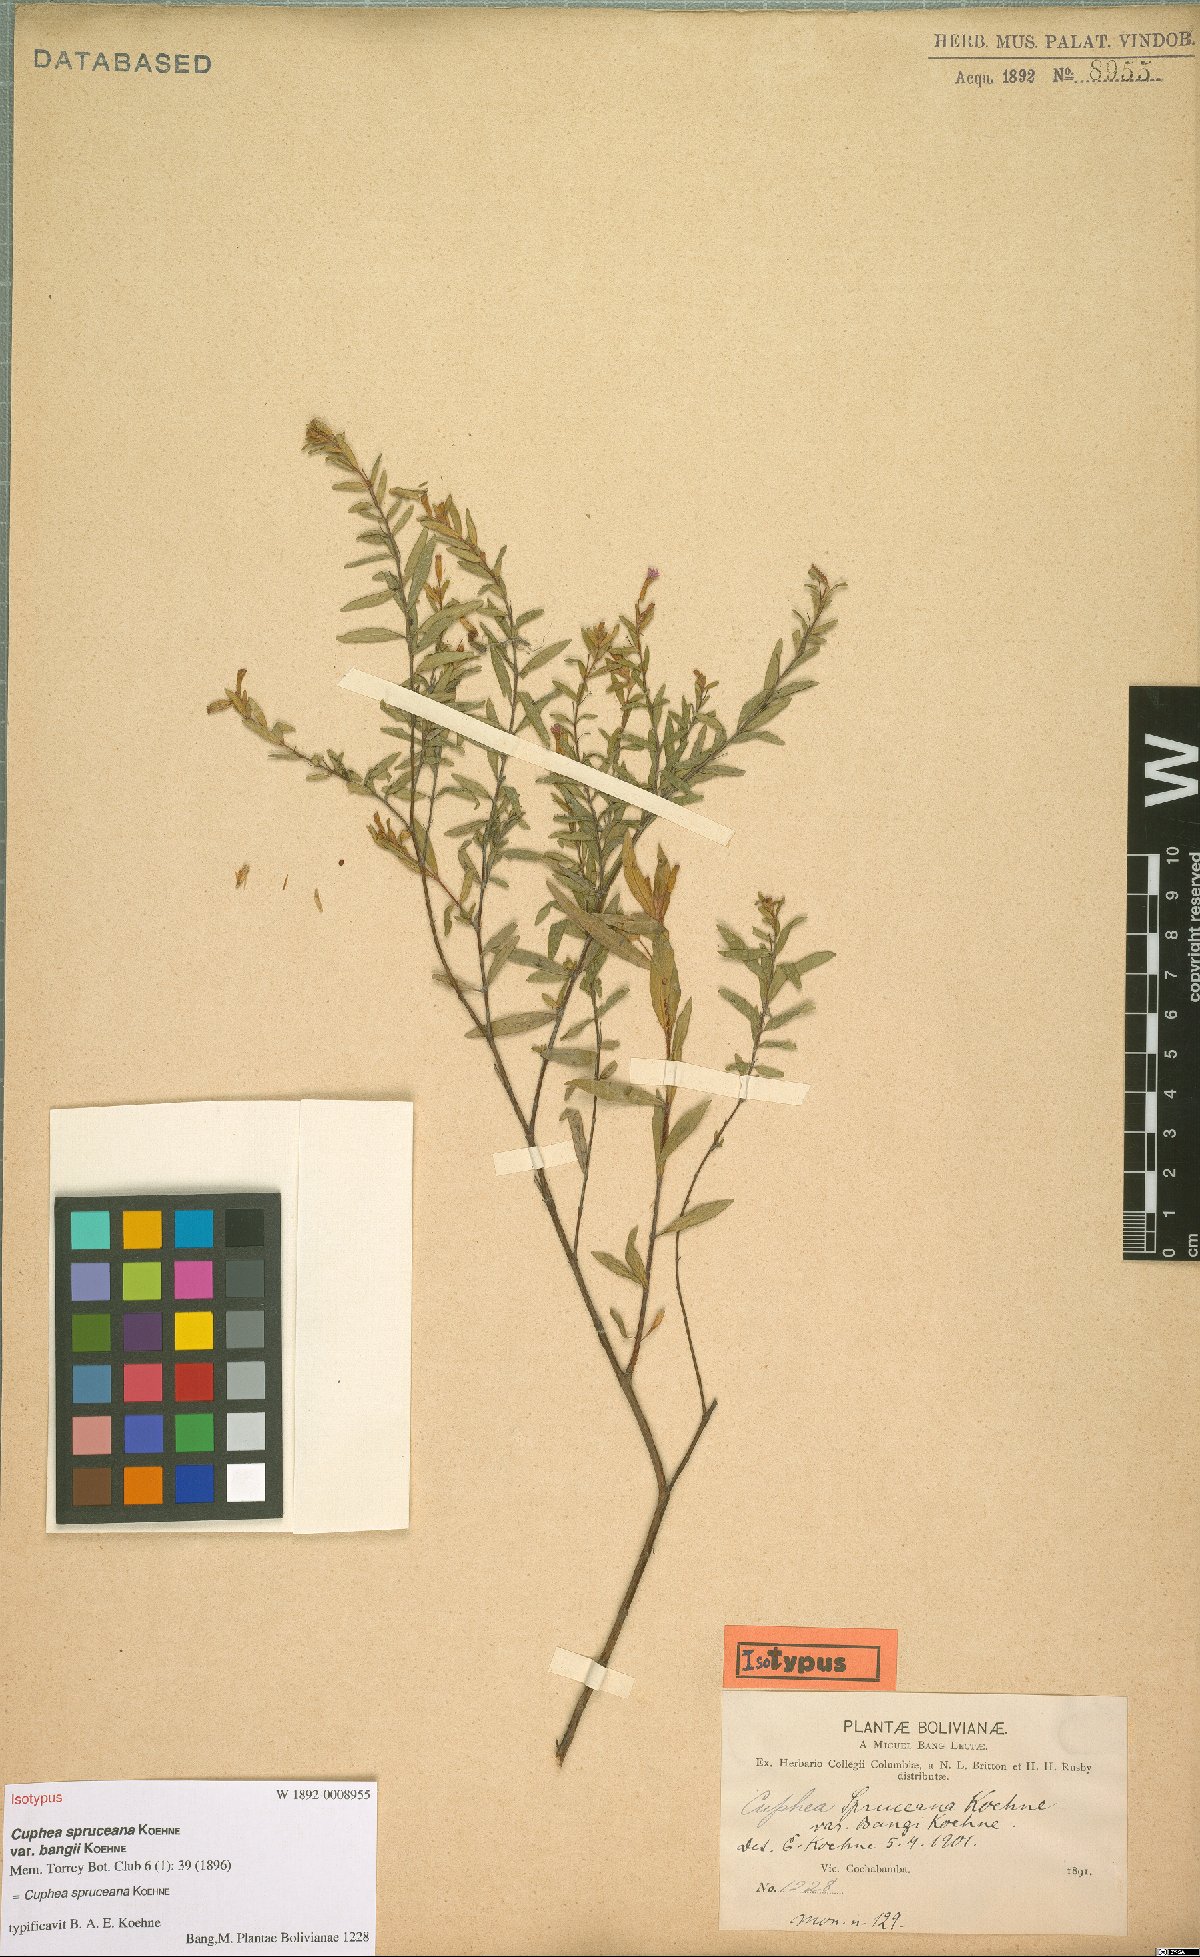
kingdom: Plantae
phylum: Tracheophyta
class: Magnoliopsida
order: Myrtales
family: Lythraceae
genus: Cuphea
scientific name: Cuphea spruceana
